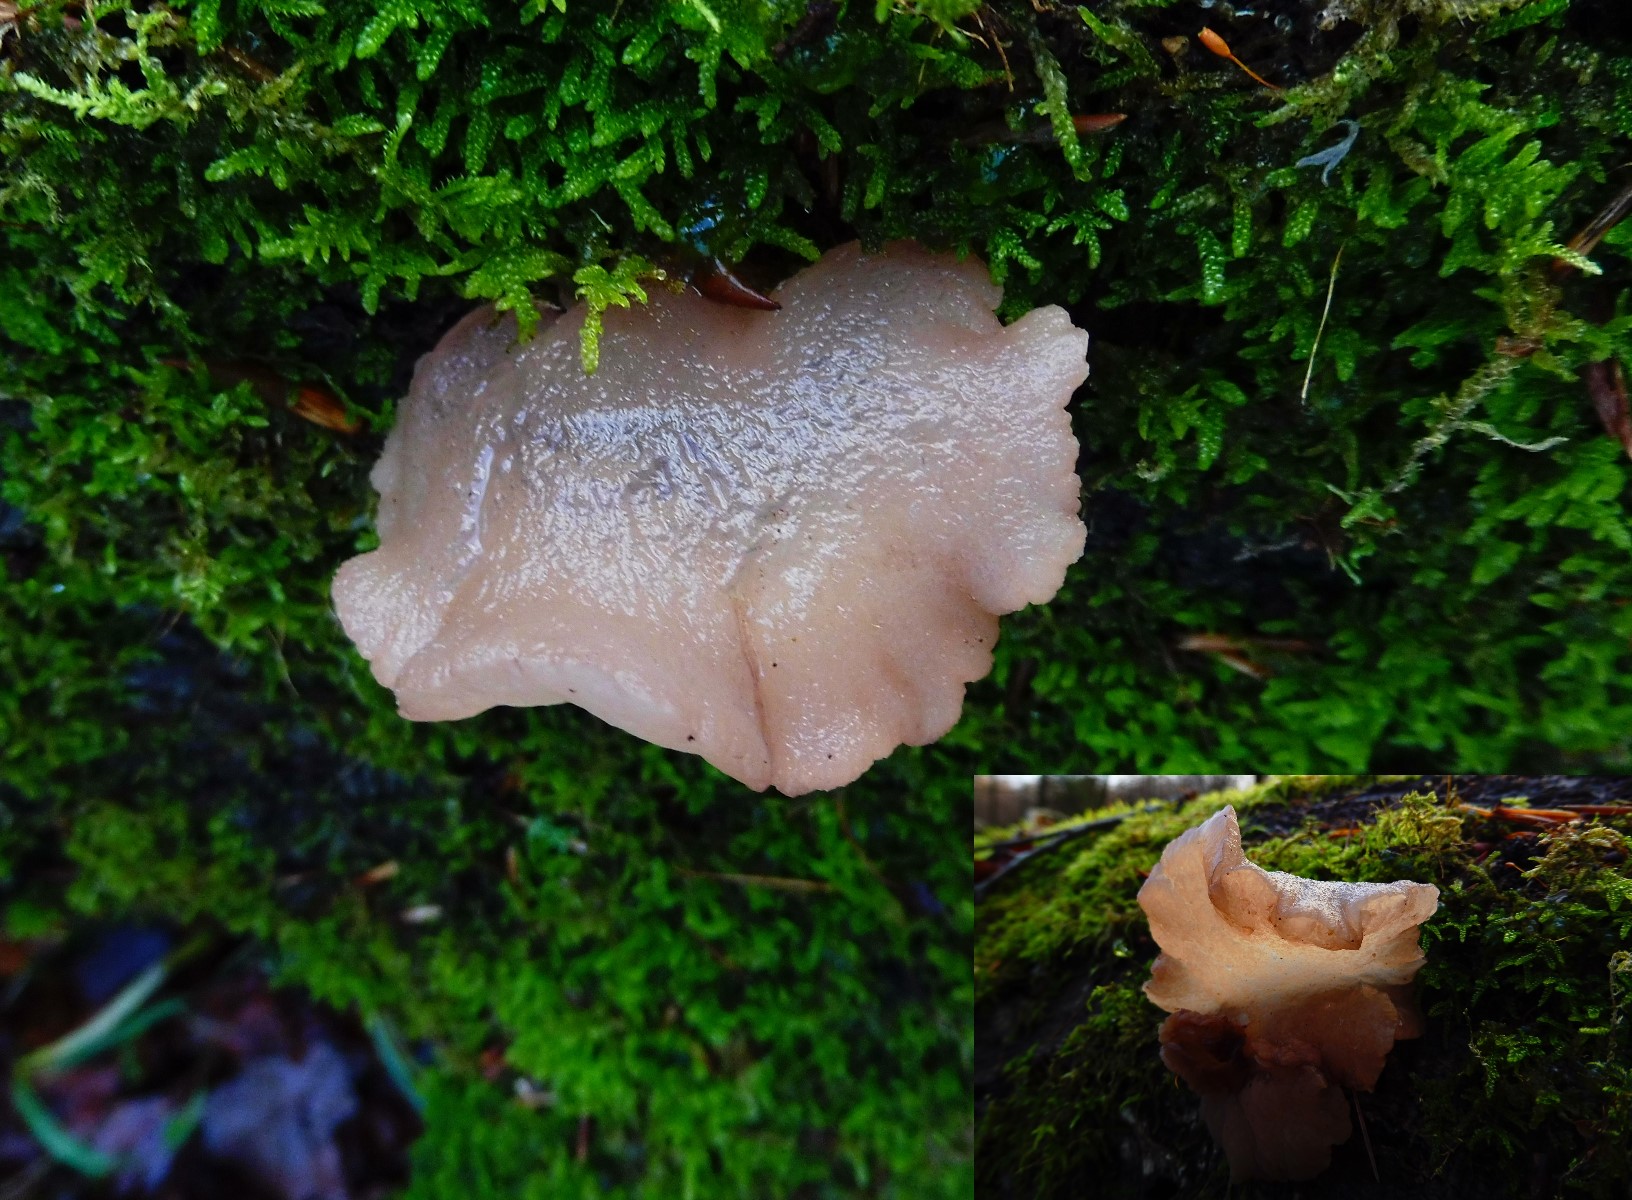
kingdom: Fungi
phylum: Ascomycota
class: Leotiomycetes
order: Helotiales
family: Gelatinodiscaceae
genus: Neobulgaria
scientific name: Neobulgaria pura
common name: bleg bævreskive
